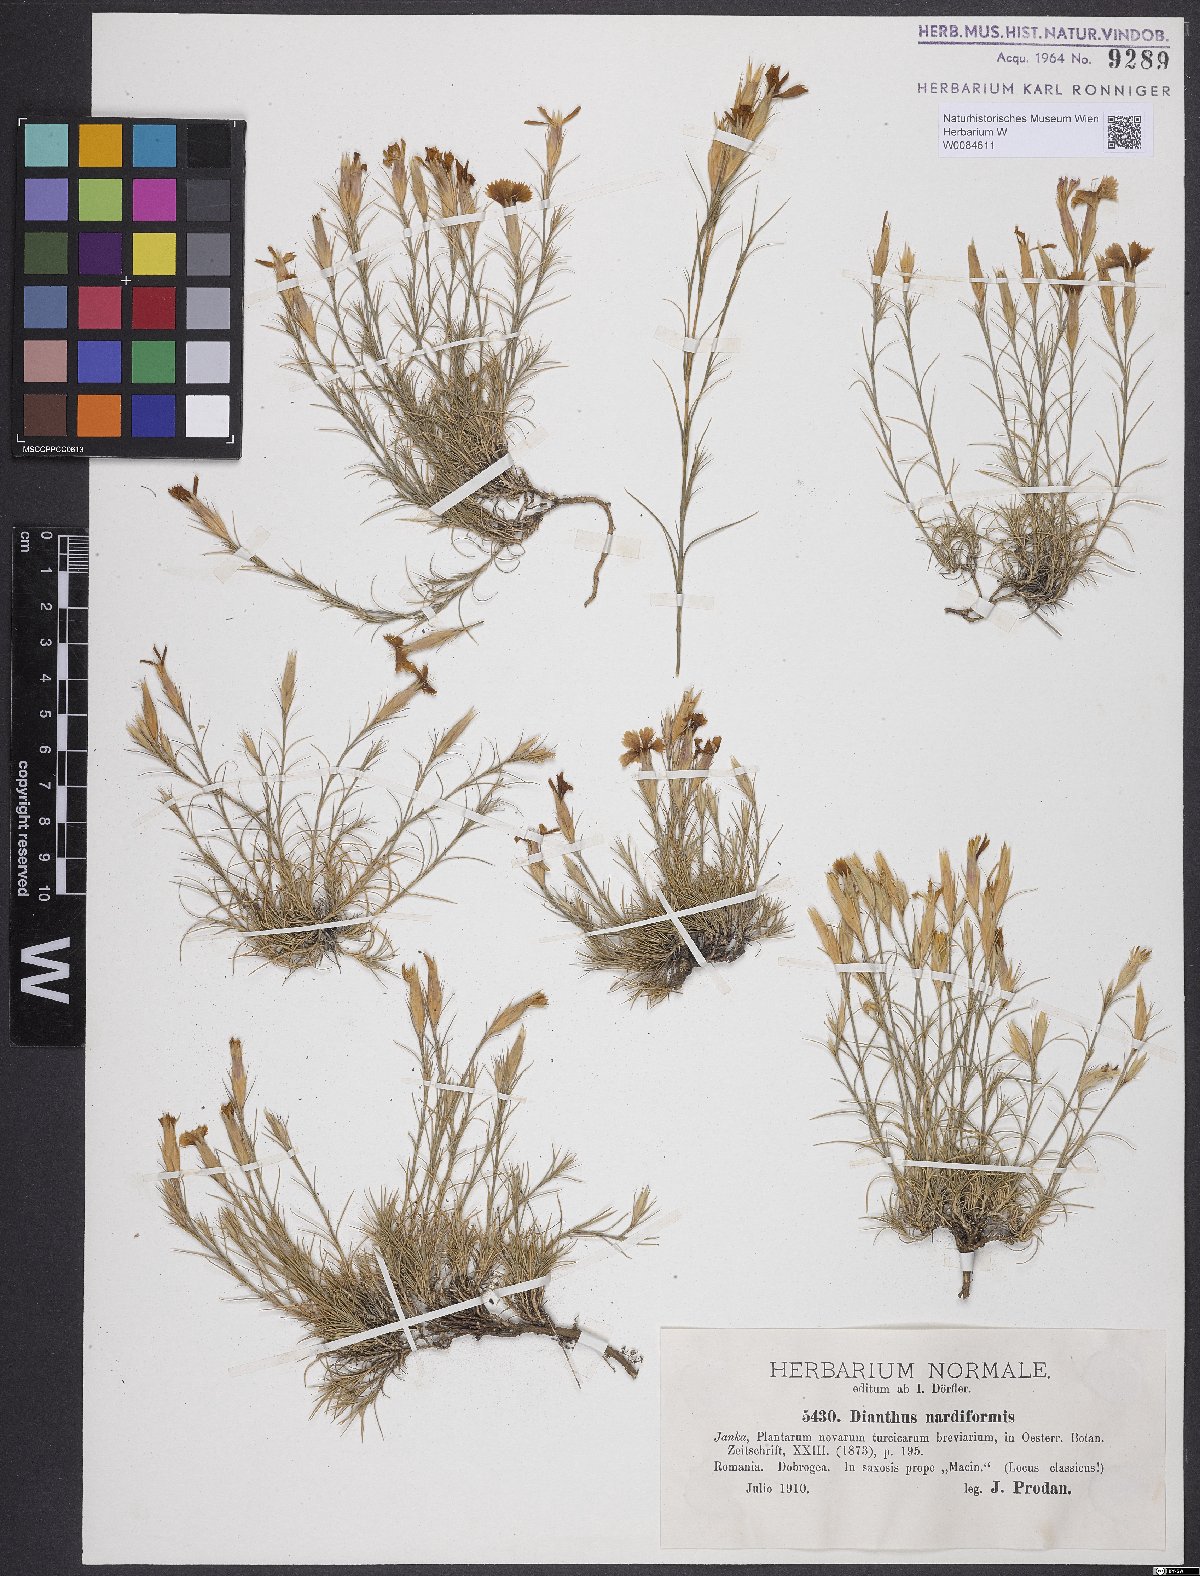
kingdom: Plantae
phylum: Tracheophyta
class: Magnoliopsida
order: Caryophyllales
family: Caryophyllaceae
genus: Dianthus
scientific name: Dianthus nardiformis
